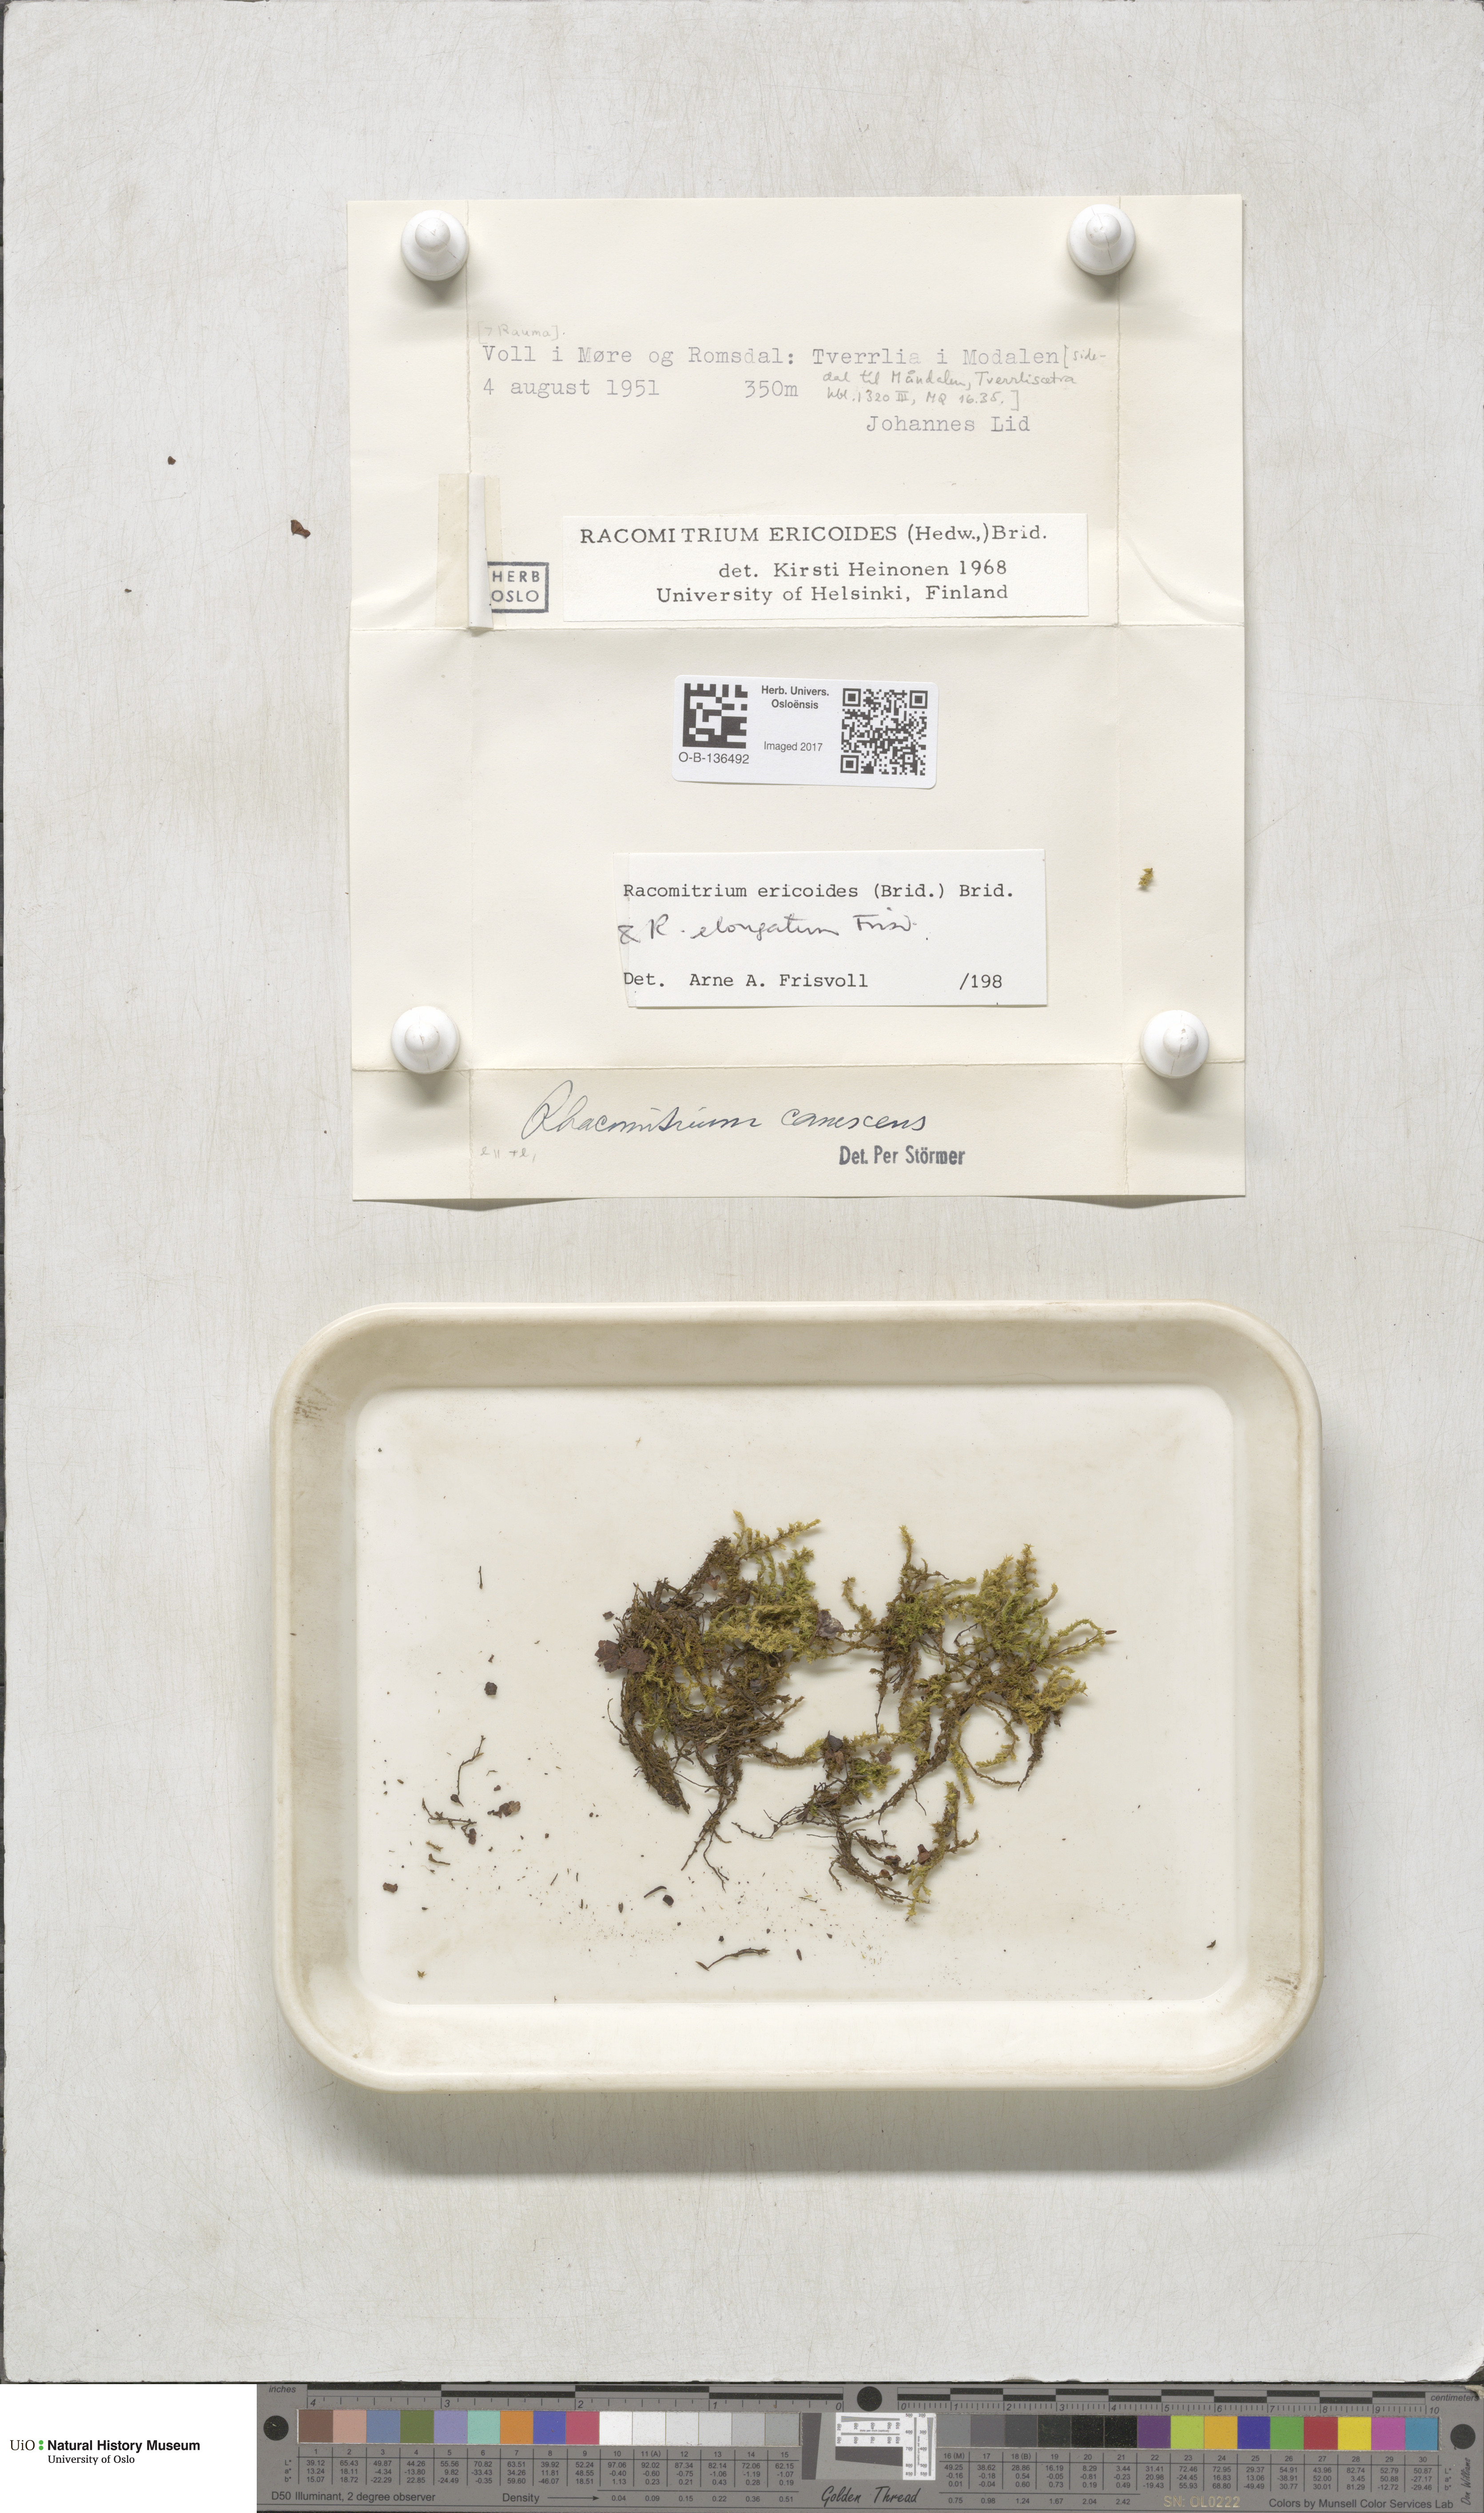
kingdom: Plantae
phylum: Bryophyta
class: Bryopsida
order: Grimmiales
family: Grimmiaceae
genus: Niphotrichum
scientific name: Niphotrichum ericoides
